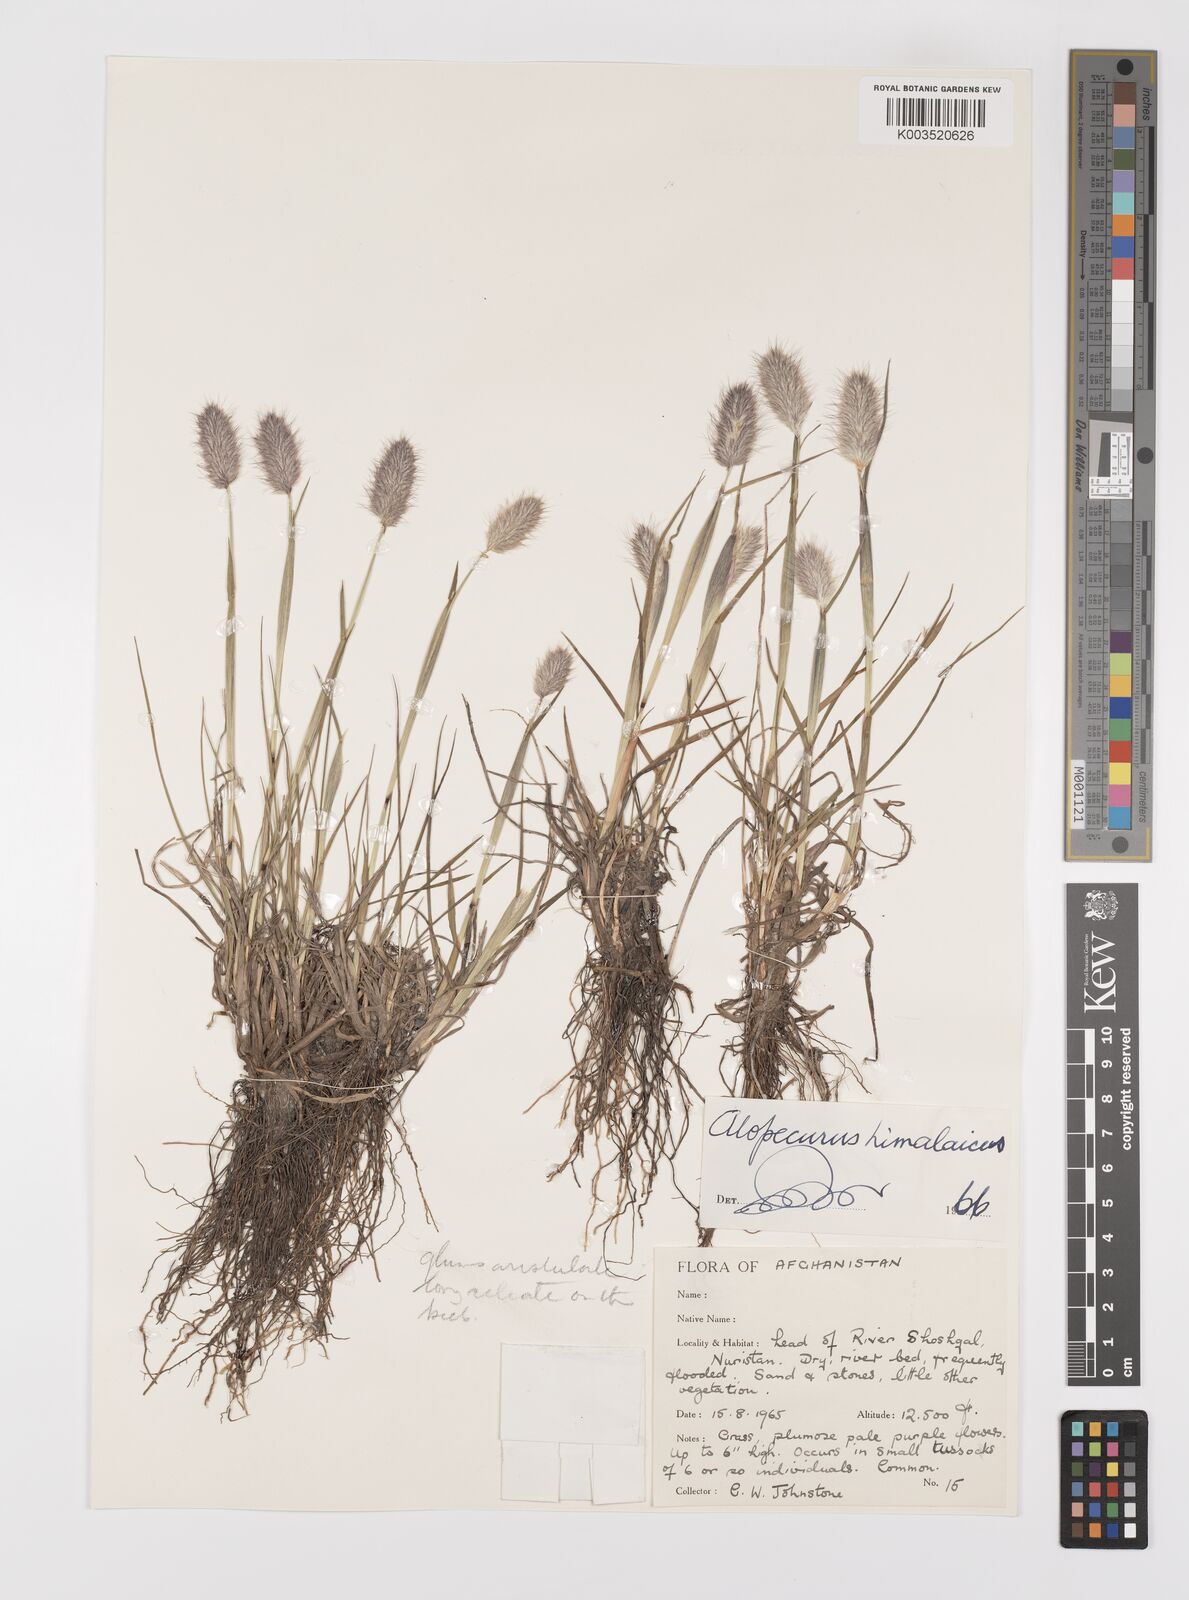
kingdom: Plantae
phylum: Tracheophyta
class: Liliopsida
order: Poales
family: Poaceae
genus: Alopecurus
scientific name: Alopecurus himalaicus
